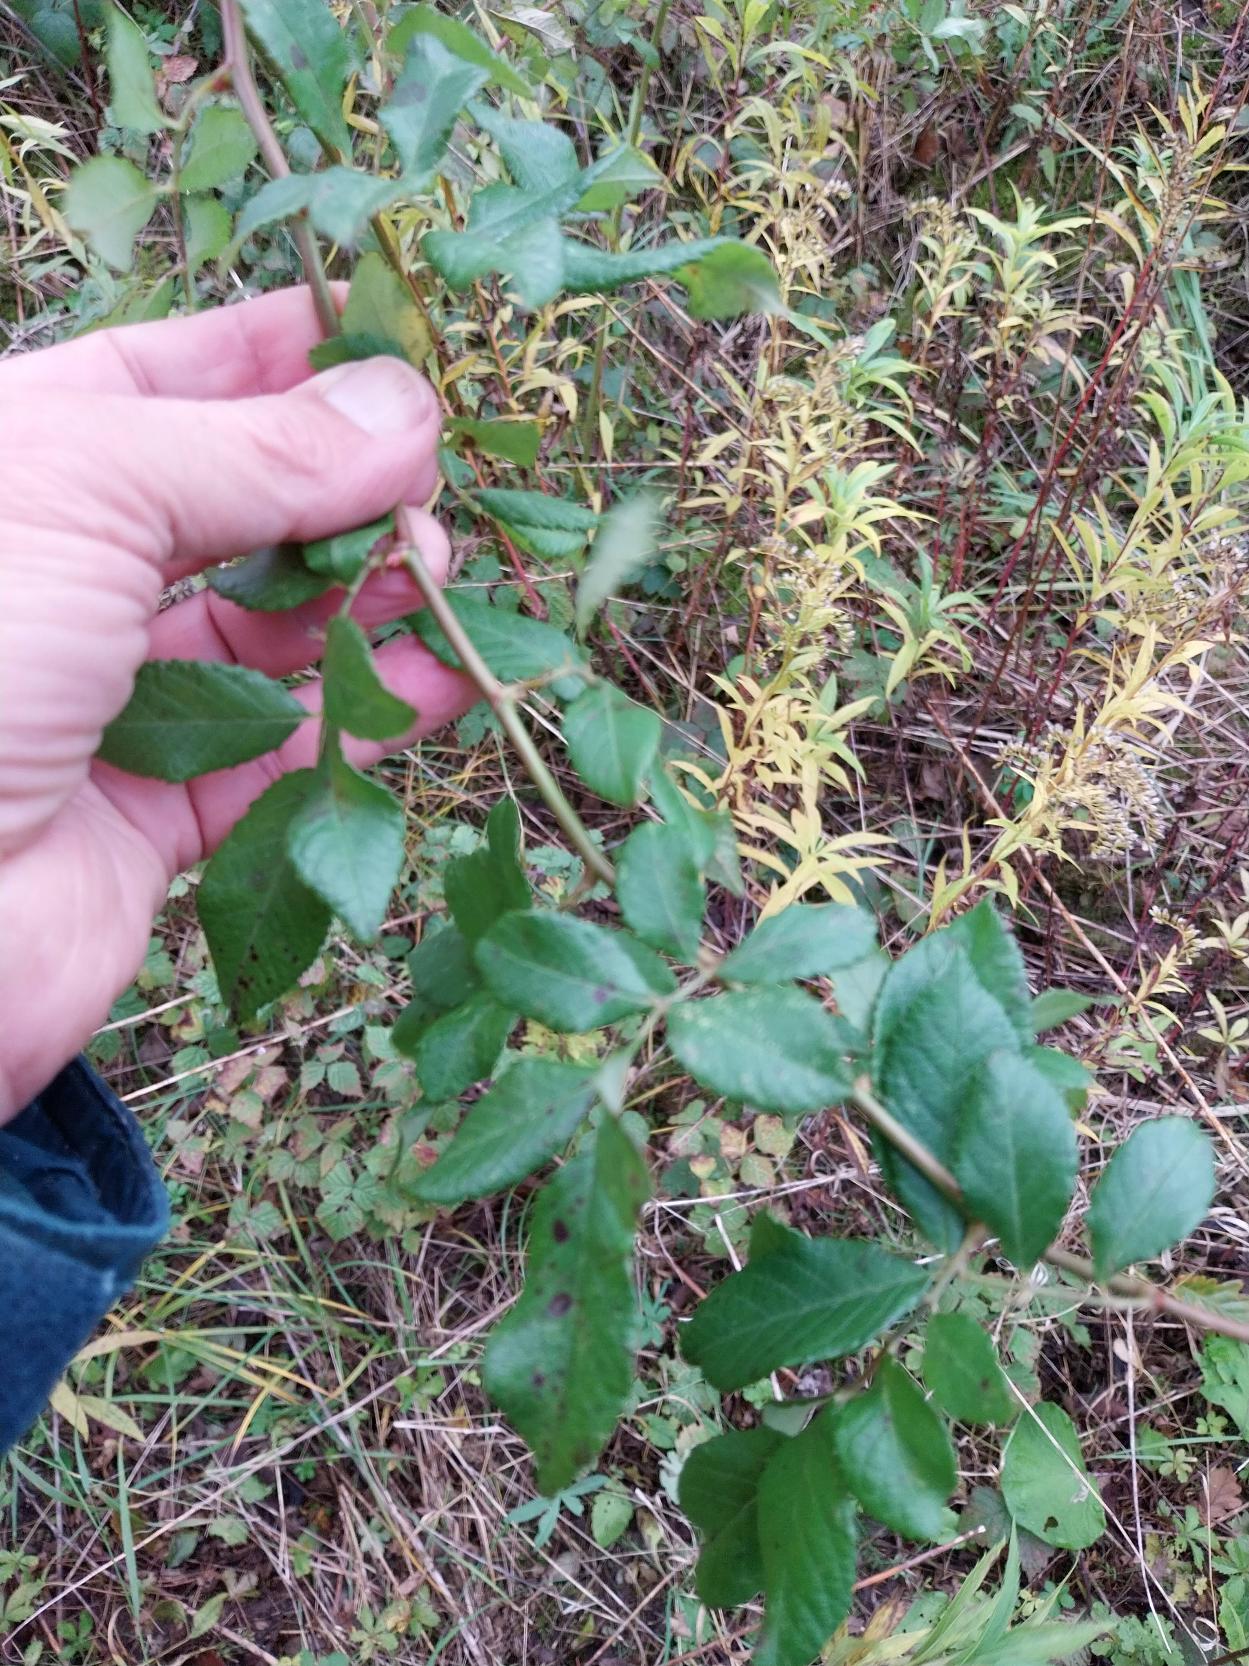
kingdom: Plantae
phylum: Tracheophyta
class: Magnoliopsida
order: Rosales
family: Rosaceae
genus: Rosa
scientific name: Rosa multiflora
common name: Mangeblomstret rose
